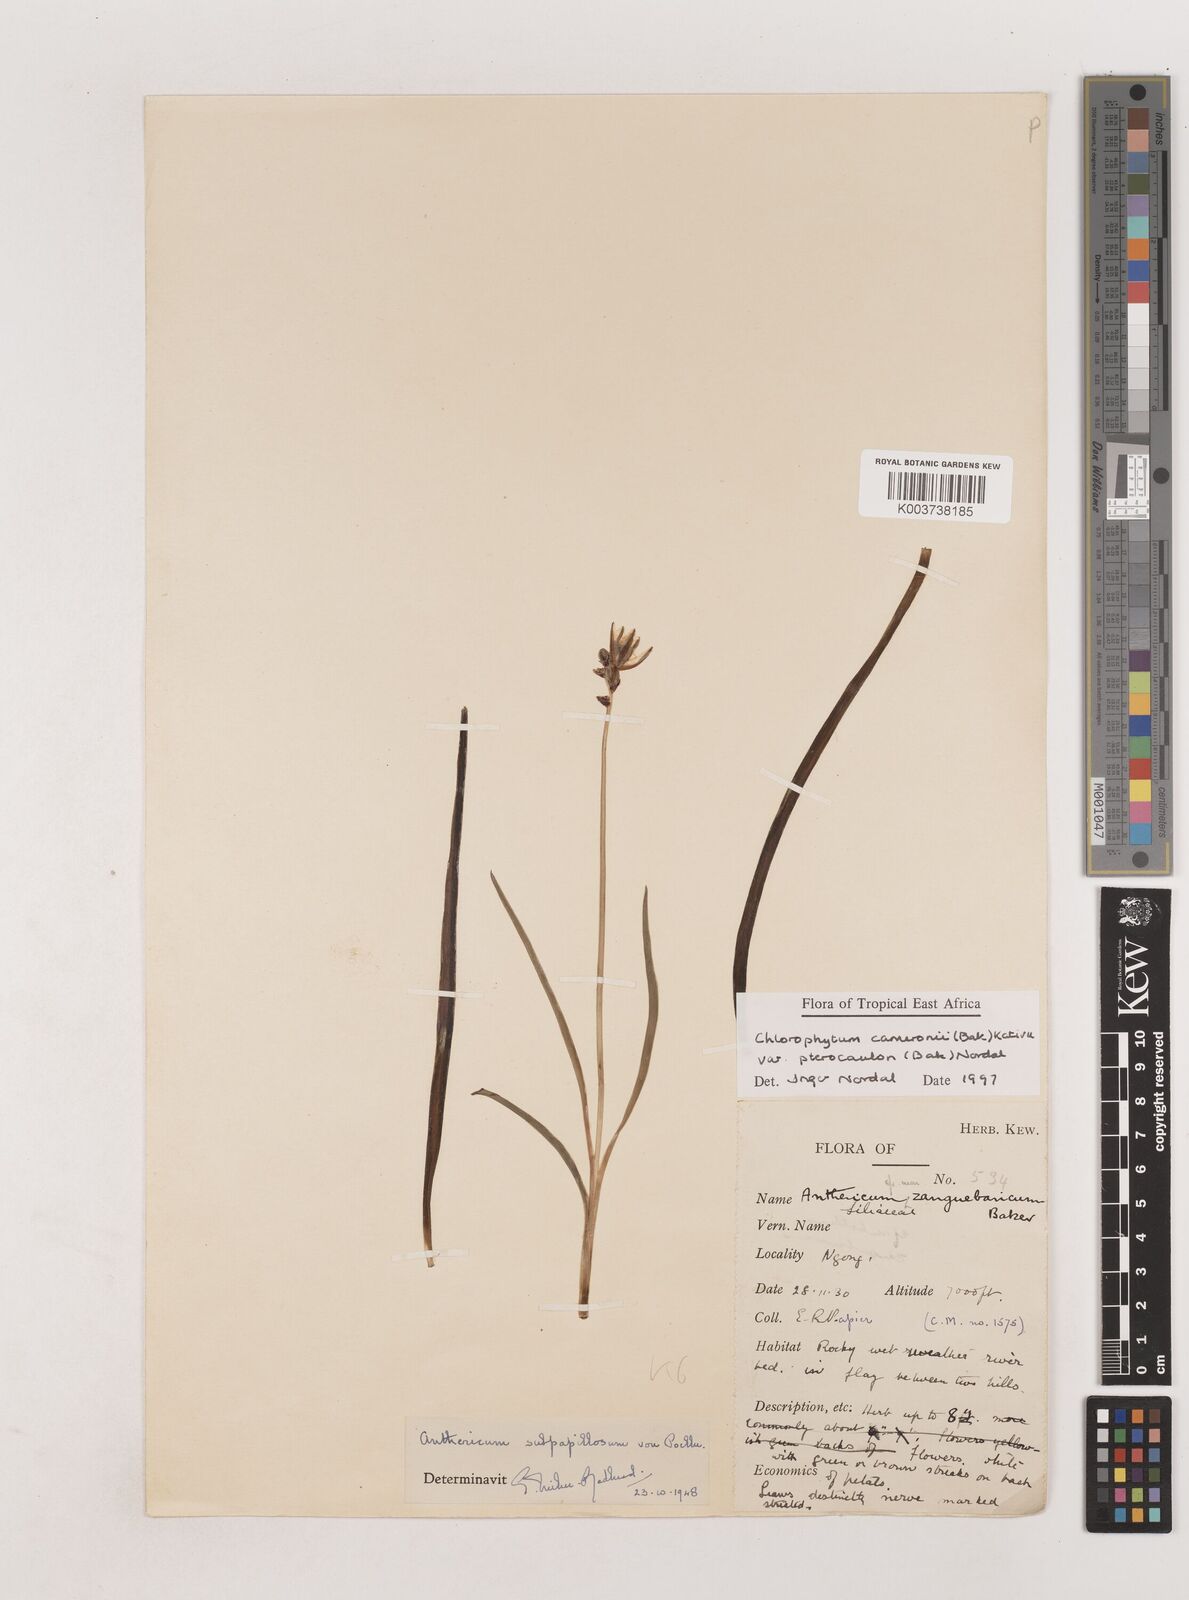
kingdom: Plantae
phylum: Tracheophyta
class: Liliopsida
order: Asparagales
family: Asparagaceae
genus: Chlorophytum
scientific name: Chlorophytum cameronii
